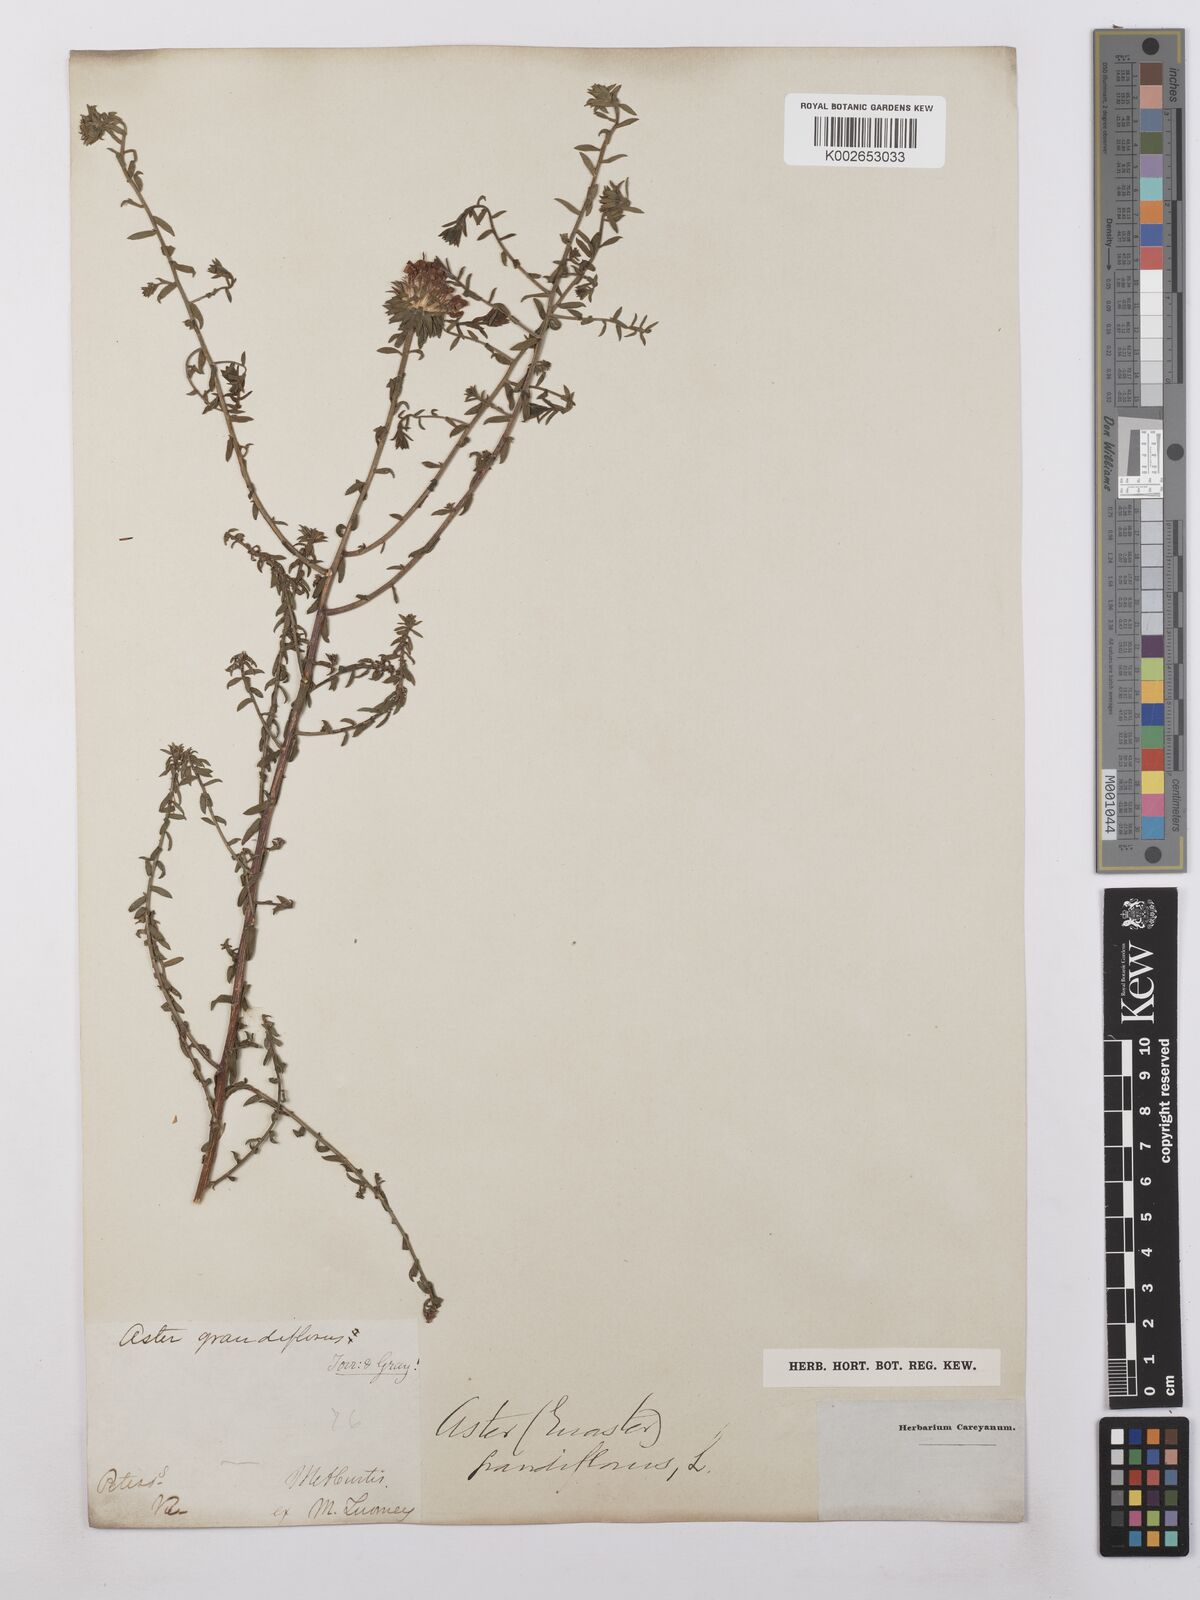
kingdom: Plantae
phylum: Tracheophyta
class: Magnoliopsida
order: Asterales
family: Asteraceae
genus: Symphyotrichum
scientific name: Symphyotrichum grandiflorum
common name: Big-head aster
